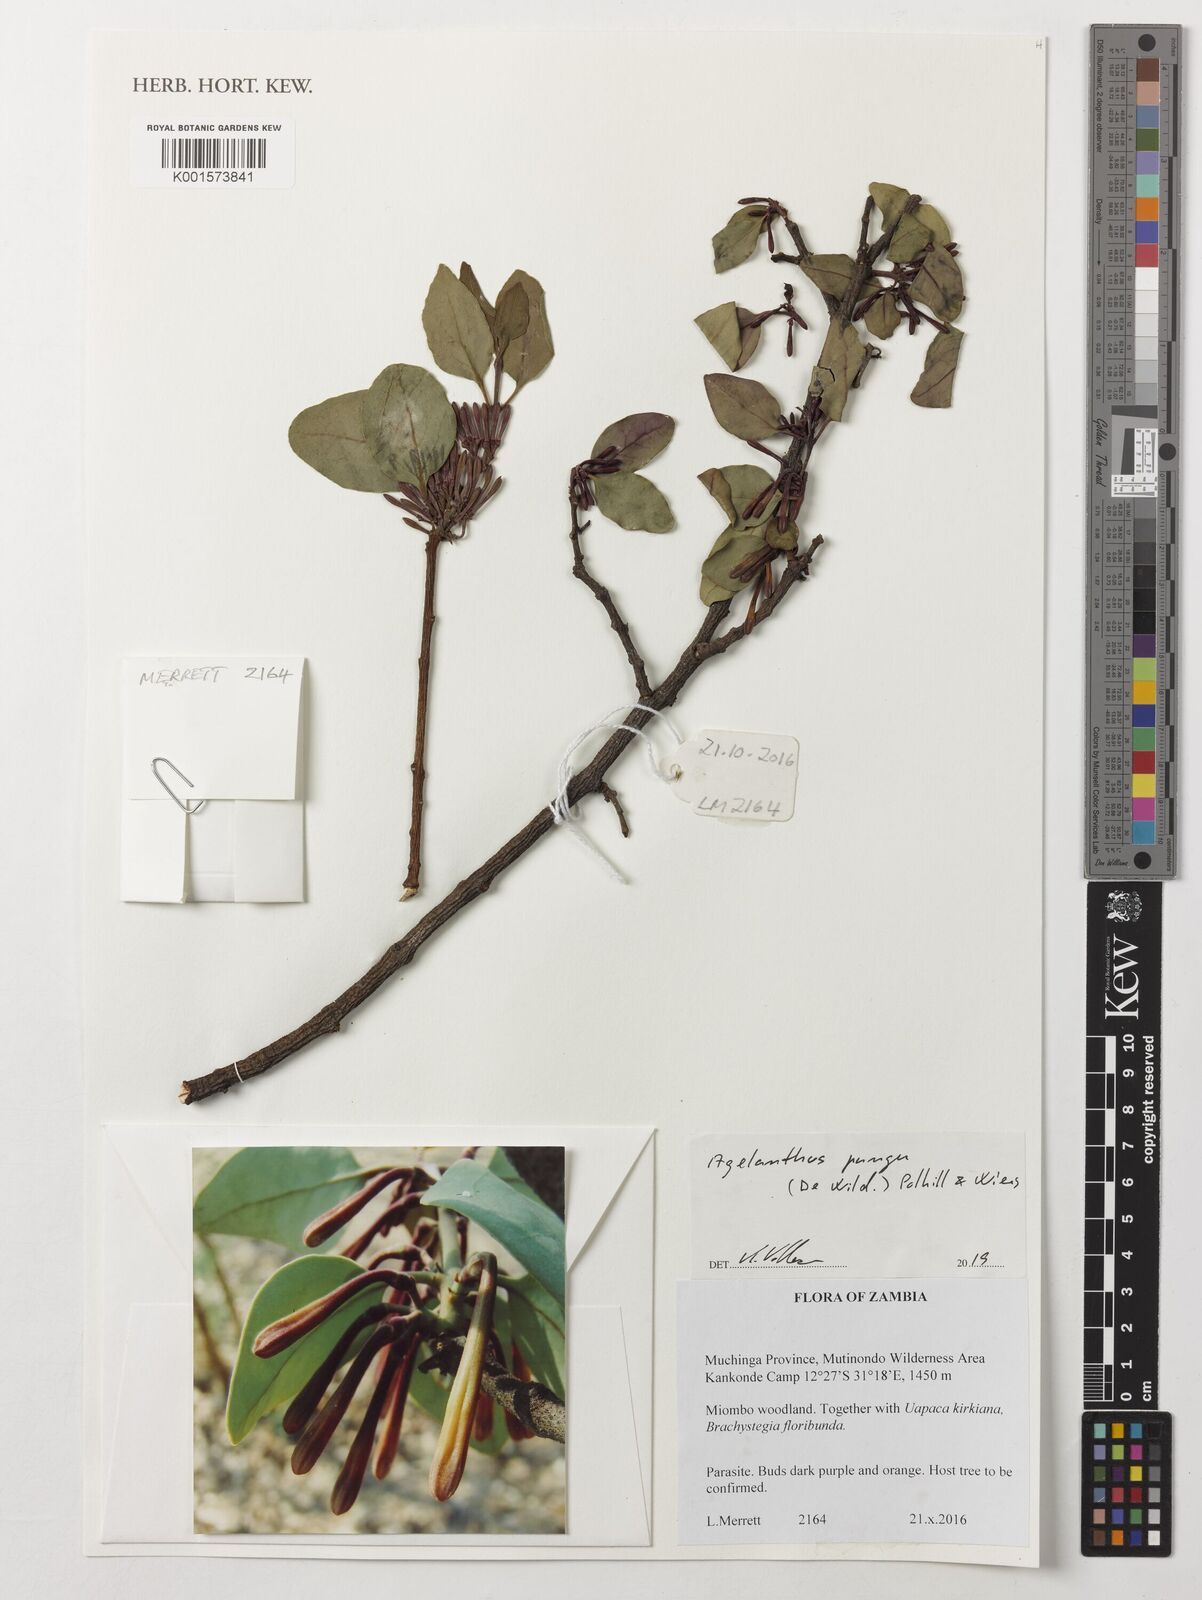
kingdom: Plantae
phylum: Tracheophyta
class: Magnoliopsida
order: Santalales
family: Loranthaceae
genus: Agelanthus
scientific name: Agelanthus pungu
